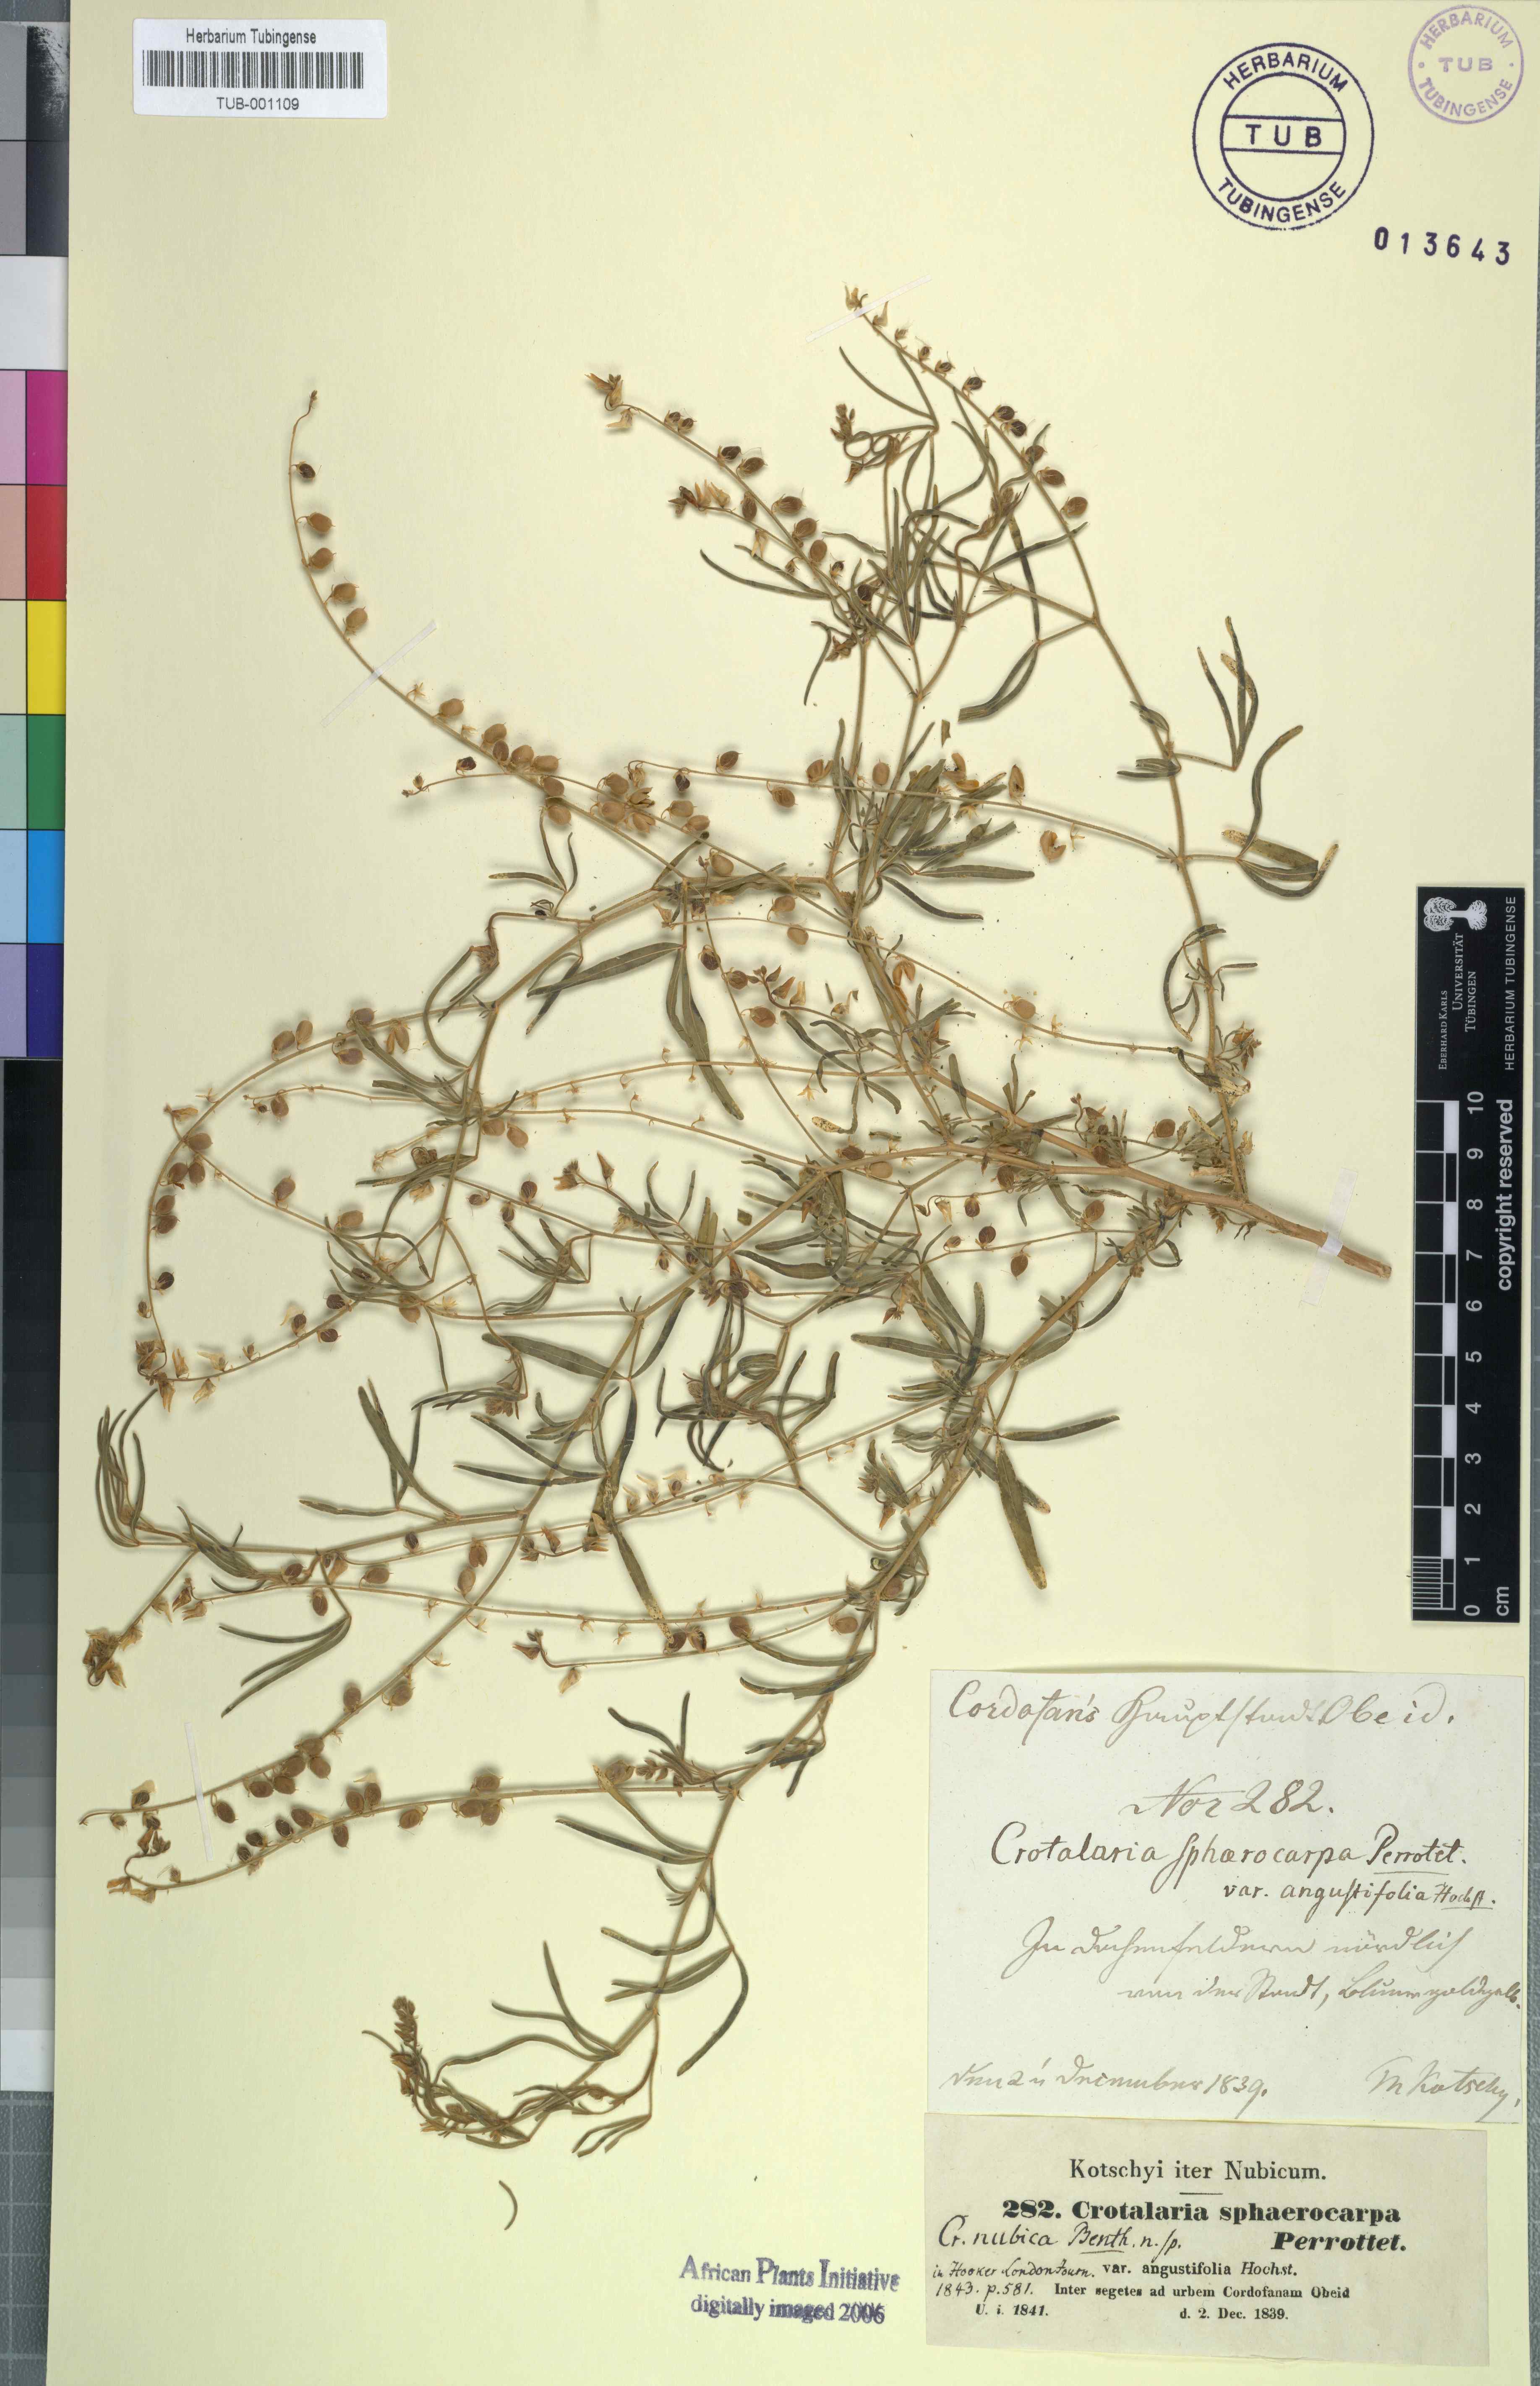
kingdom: Plantae
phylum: Tracheophyta
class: Magnoliopsida
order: Fabales
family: Fabaceae
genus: Crotalaria
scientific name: Crotalaria sphaerocarpa
